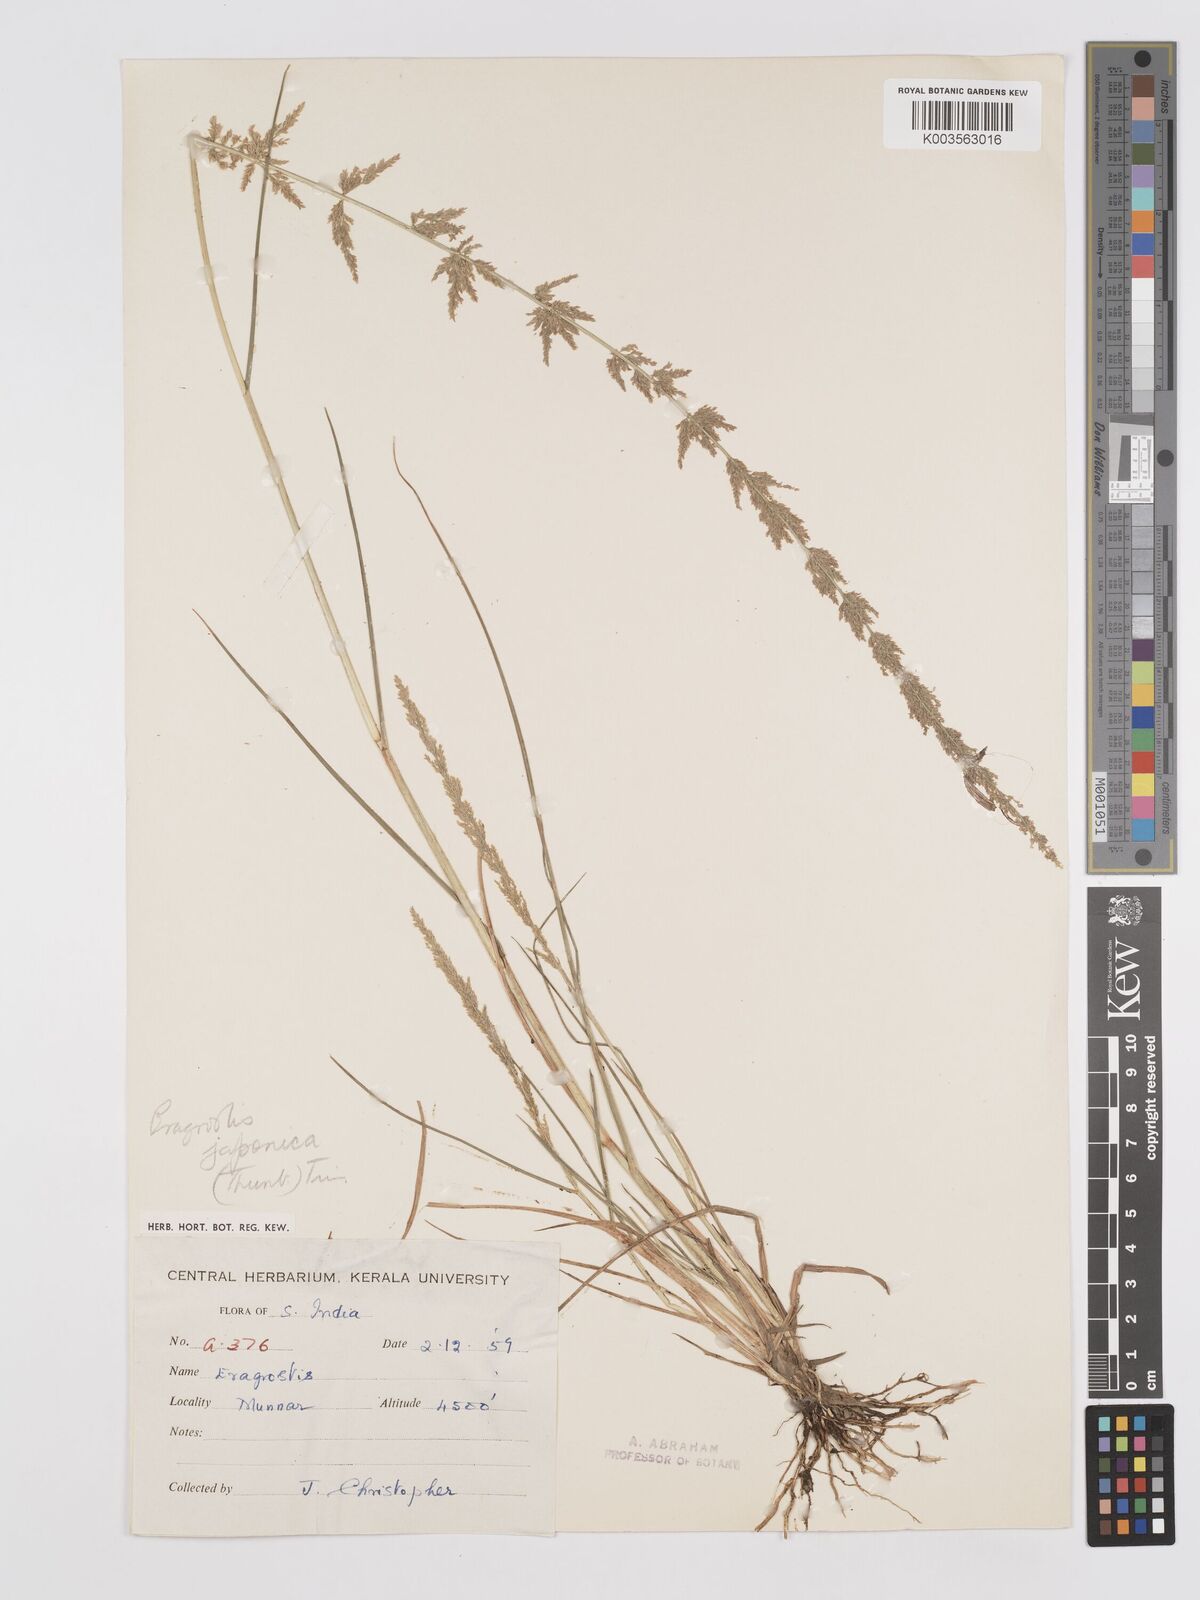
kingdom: Plantae
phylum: Tracheophyta
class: Liliopsida
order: Poales
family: Poaceae
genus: Eragrostis
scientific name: Eragrostis japonica
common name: Pond lovegrass
